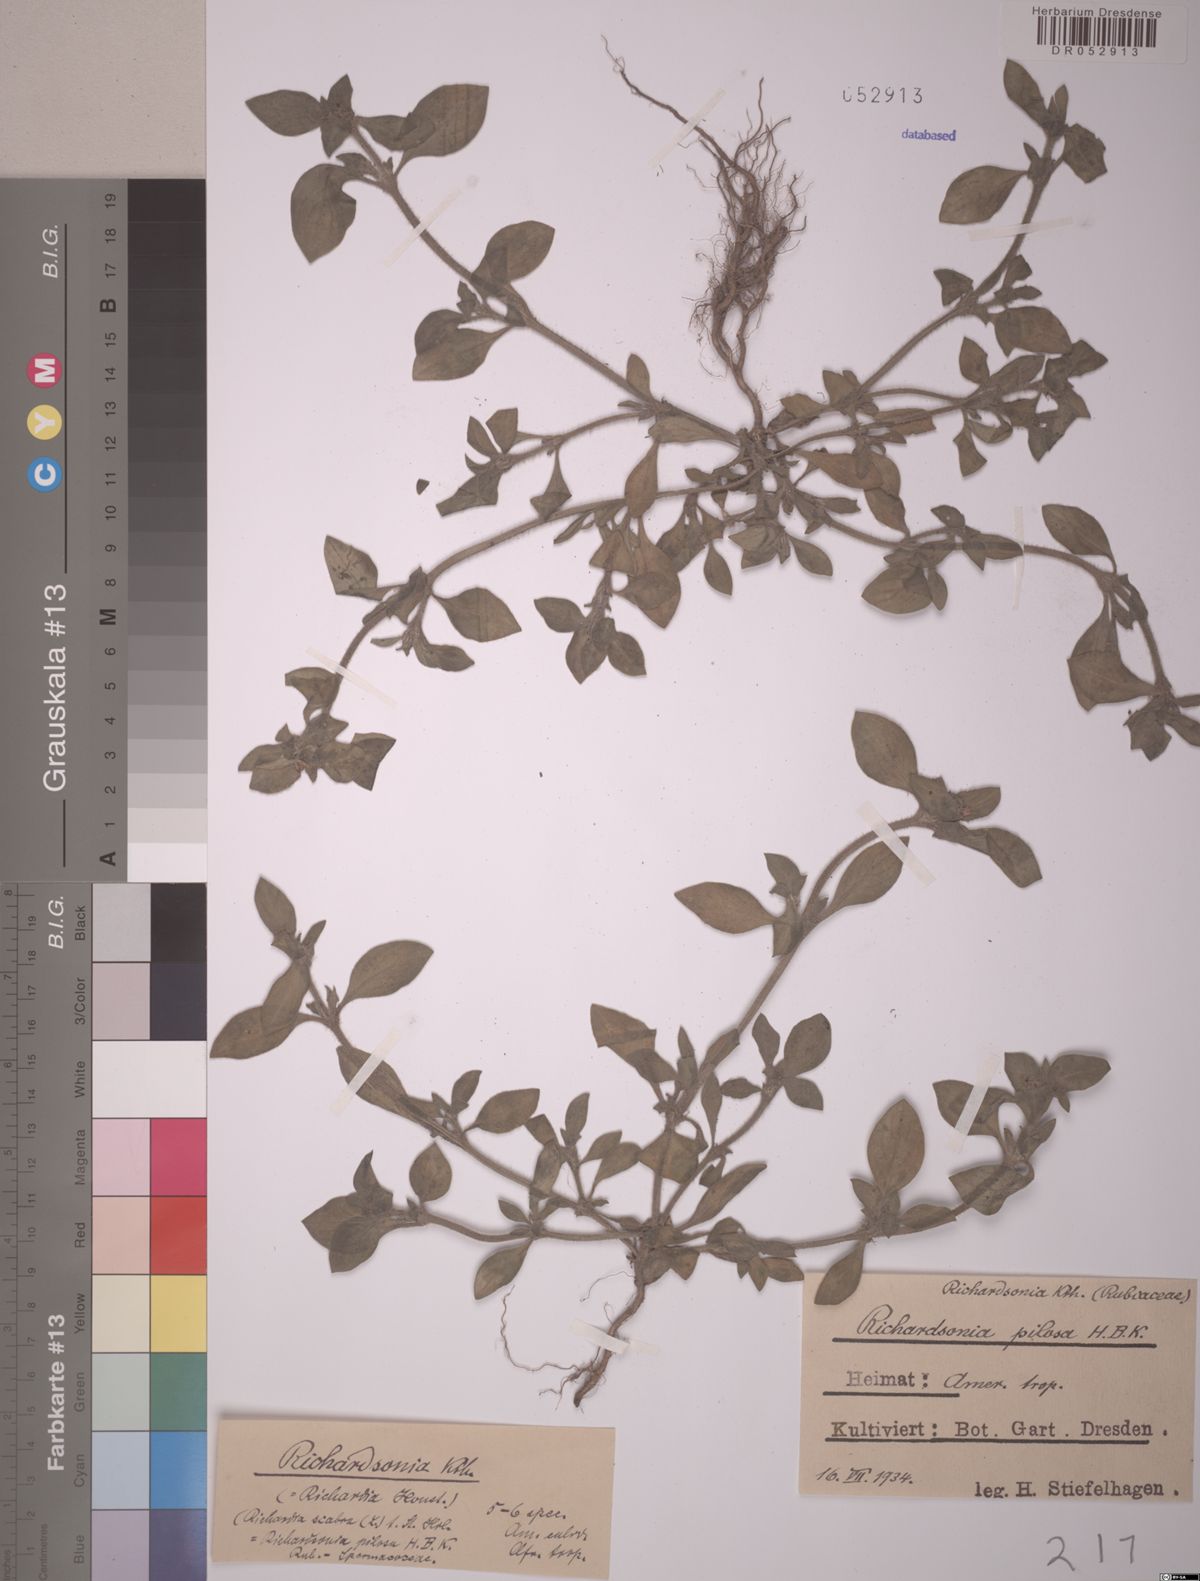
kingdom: Plantae
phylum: Tracheophyta
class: Magnoliopsida
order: Gentianales
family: Rubiaceae
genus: Richardia
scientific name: Richardia scabra
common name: Rough mexican clover
